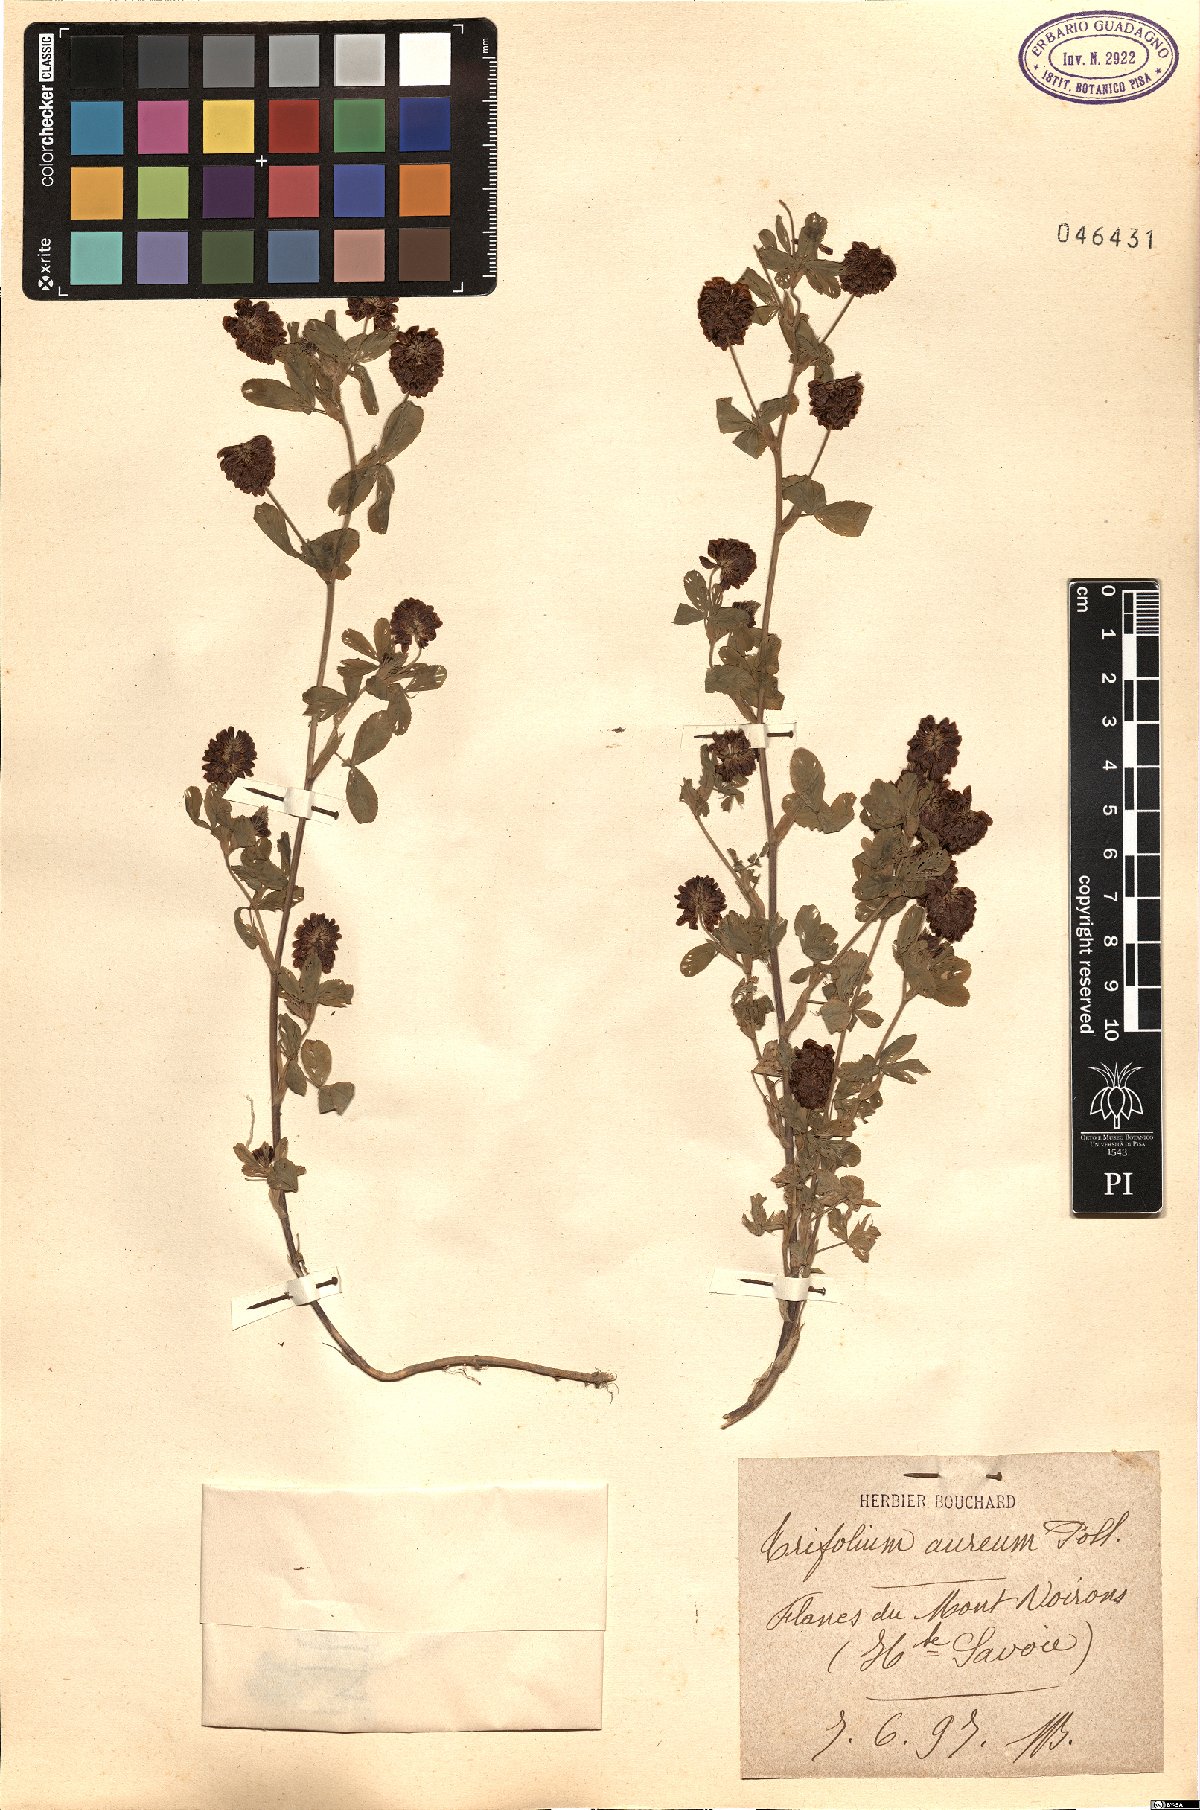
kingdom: Plantae
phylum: Tracheophyta
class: Magnoliopsida
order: Fabales
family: Fabaceae
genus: Trifolium
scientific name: Trifolium aureum
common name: Golden clover
